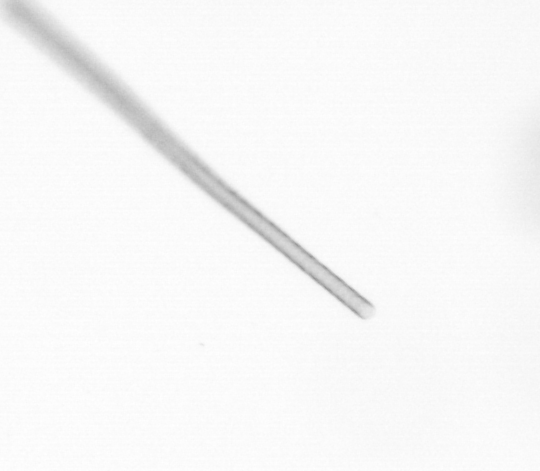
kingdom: Chromista
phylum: Ochrophyta
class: Bacillariophyceae
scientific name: Bacillariophyceae
